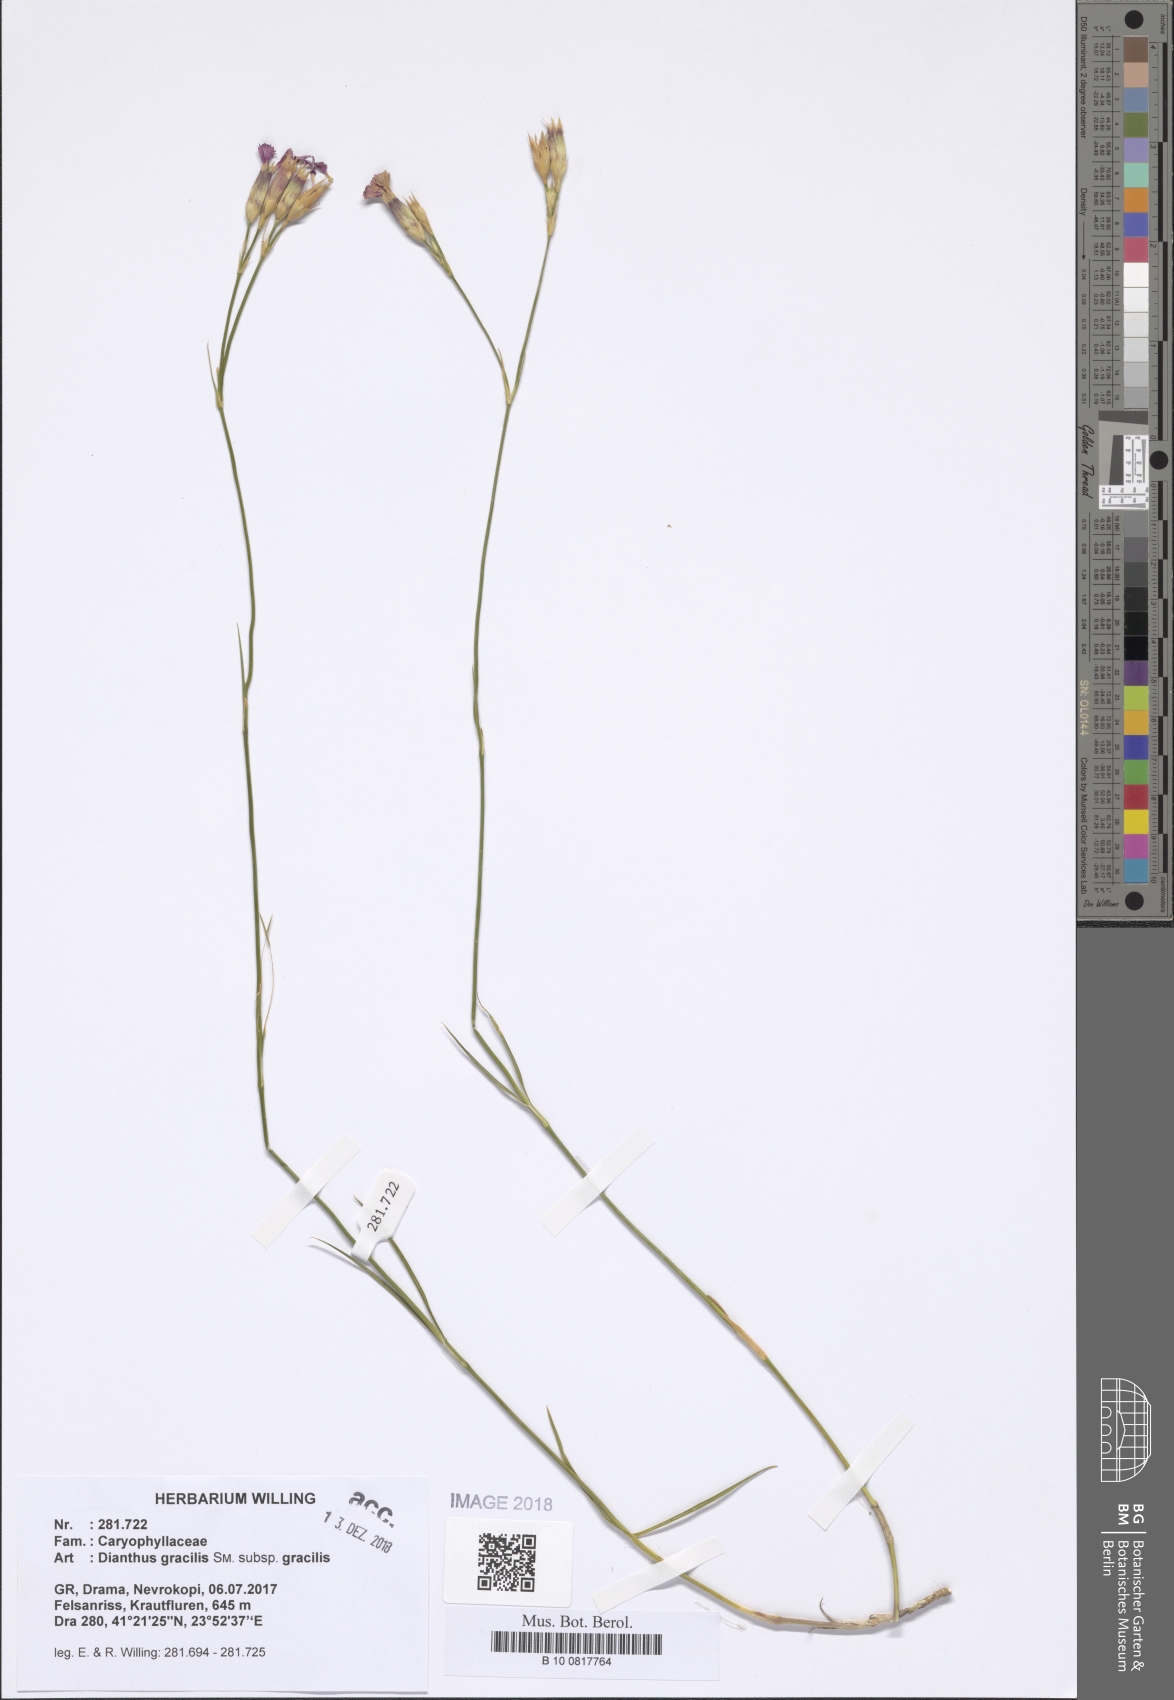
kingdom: Plantae
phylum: Tracheophyta
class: Magnoliopsida
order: Caryophyllales
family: Caryophyllaceae
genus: Dianthus
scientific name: Dianthus gracilis
